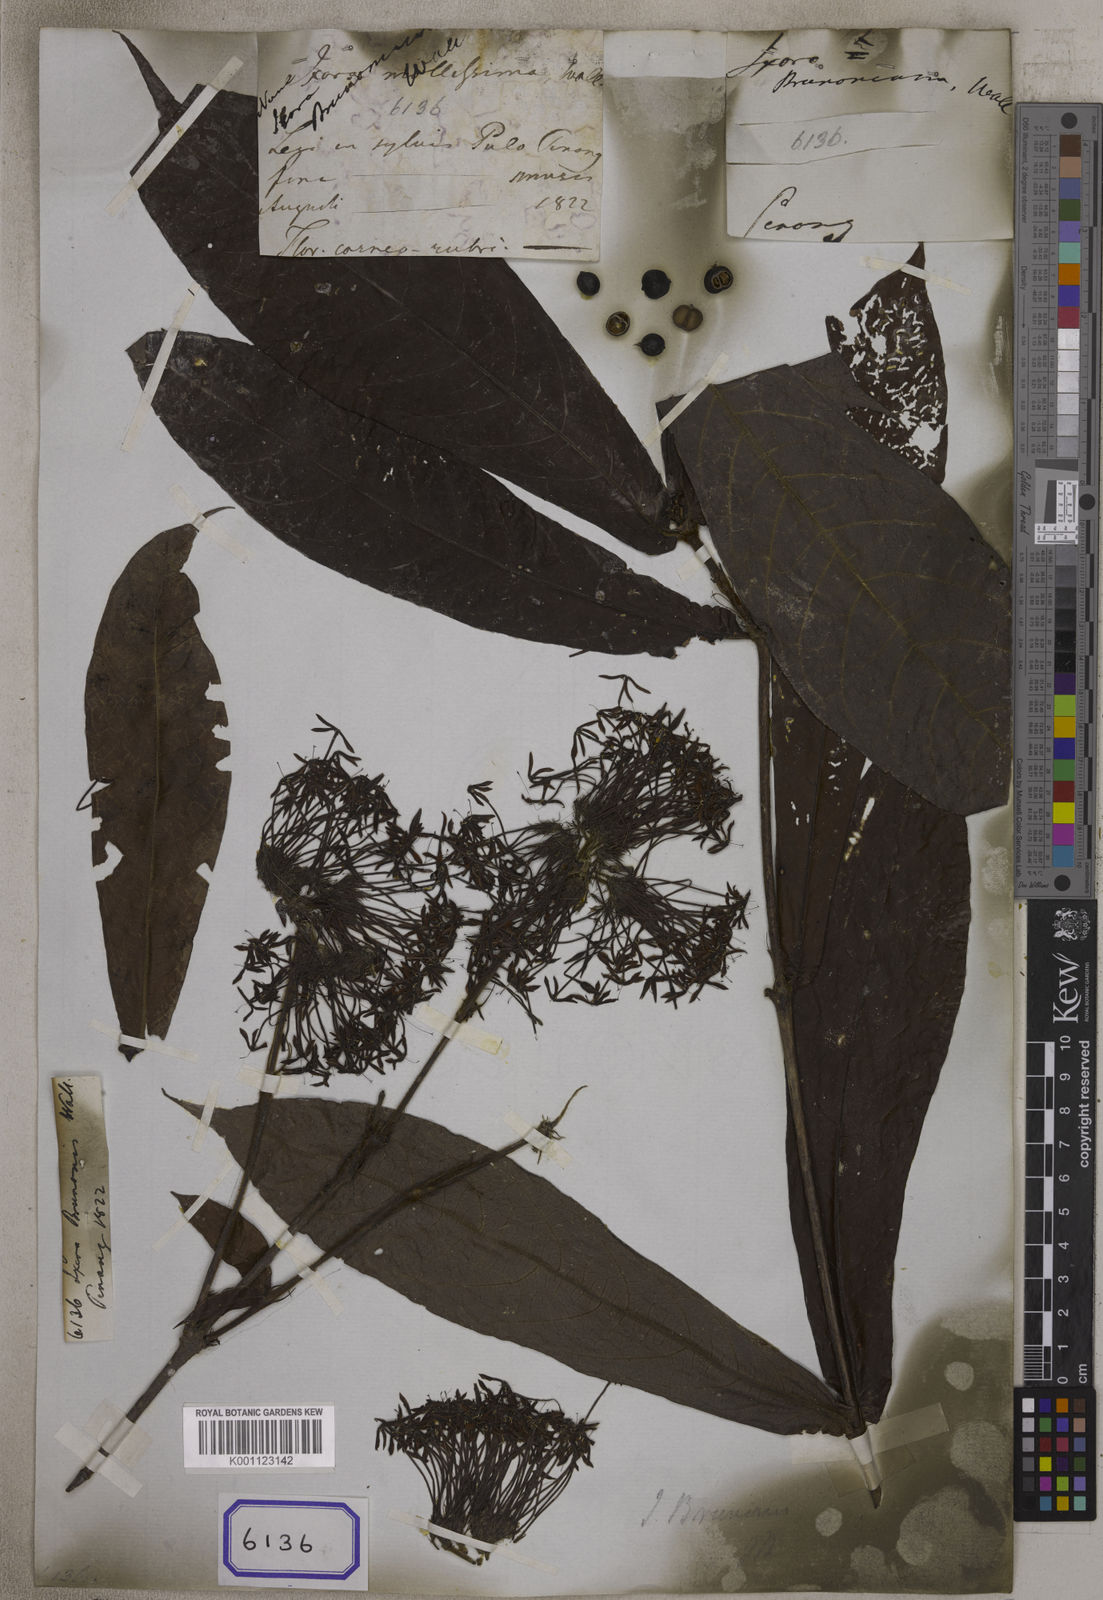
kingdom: Plantae
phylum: Tracheophyta
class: Magnoliopsida
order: Gentianales
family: Rubiaceae
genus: Ixora
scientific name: Ixora
